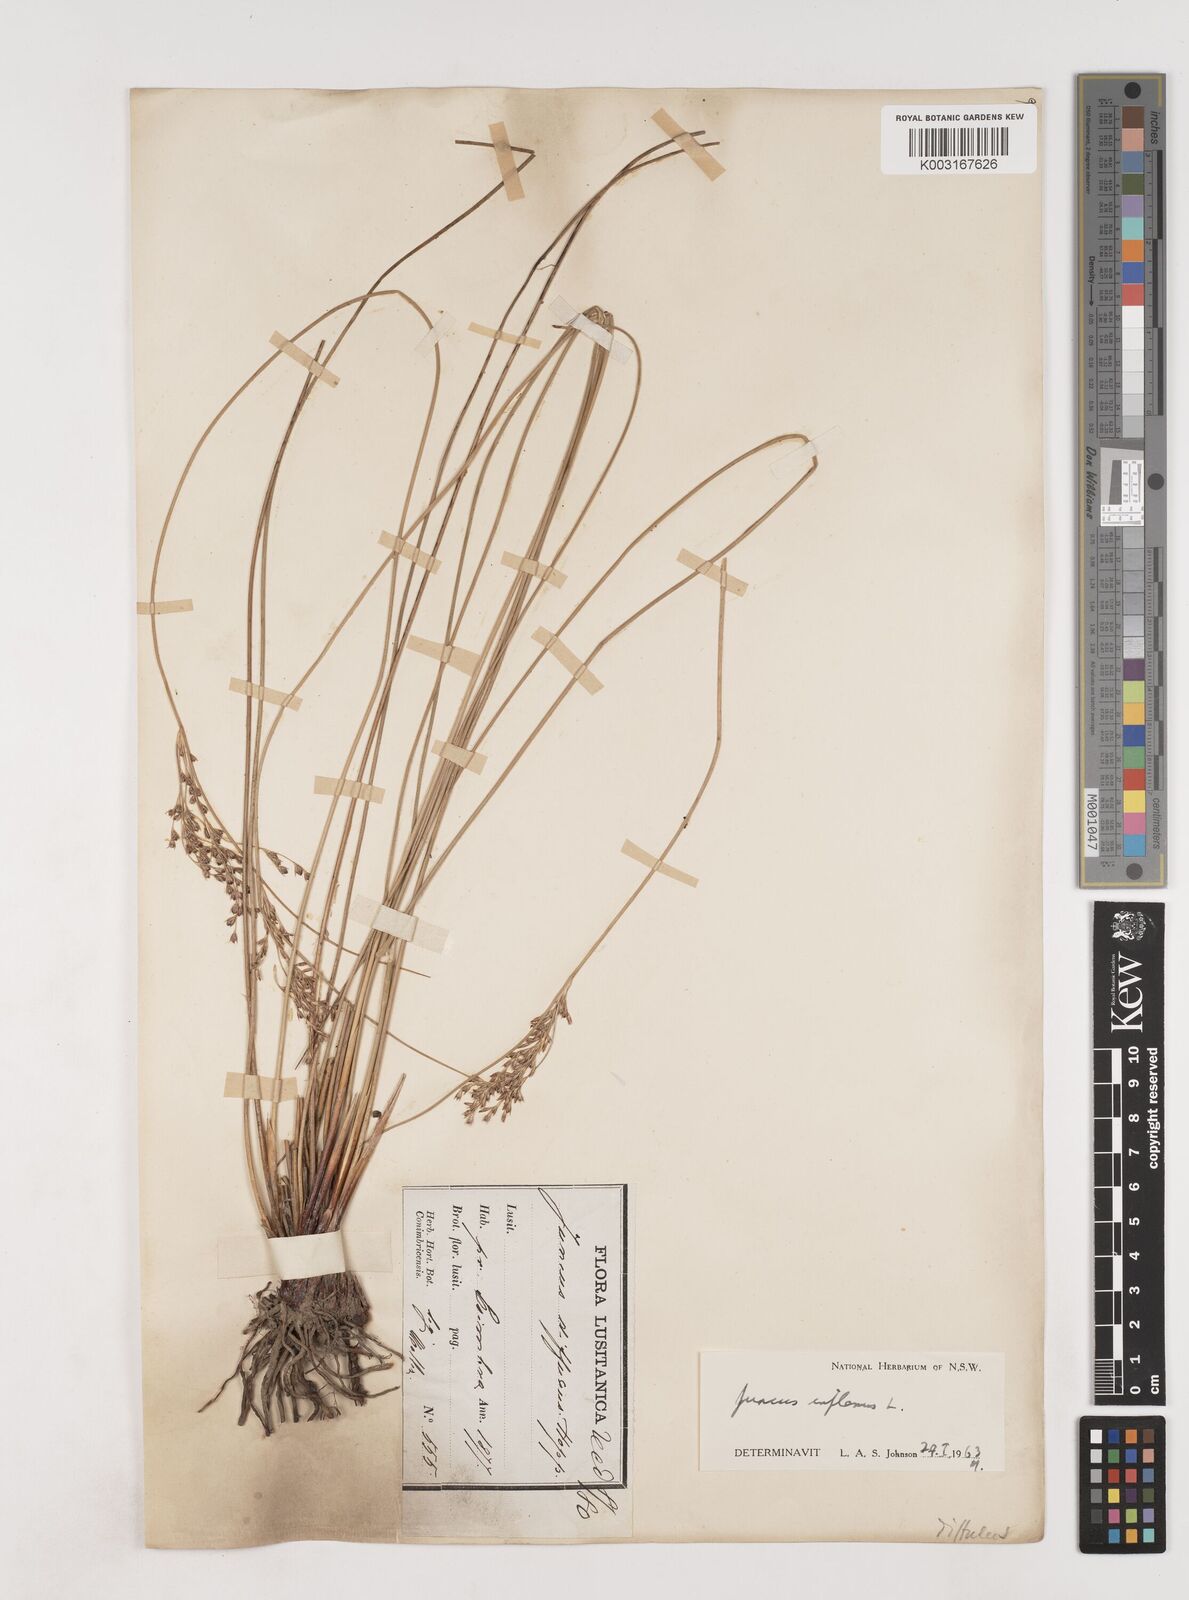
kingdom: Plantae
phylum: Tracheophyta
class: Liliopsida
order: Poales
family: Juncaceae
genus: Juncus
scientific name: Juncus inflexus
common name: Hard rush
